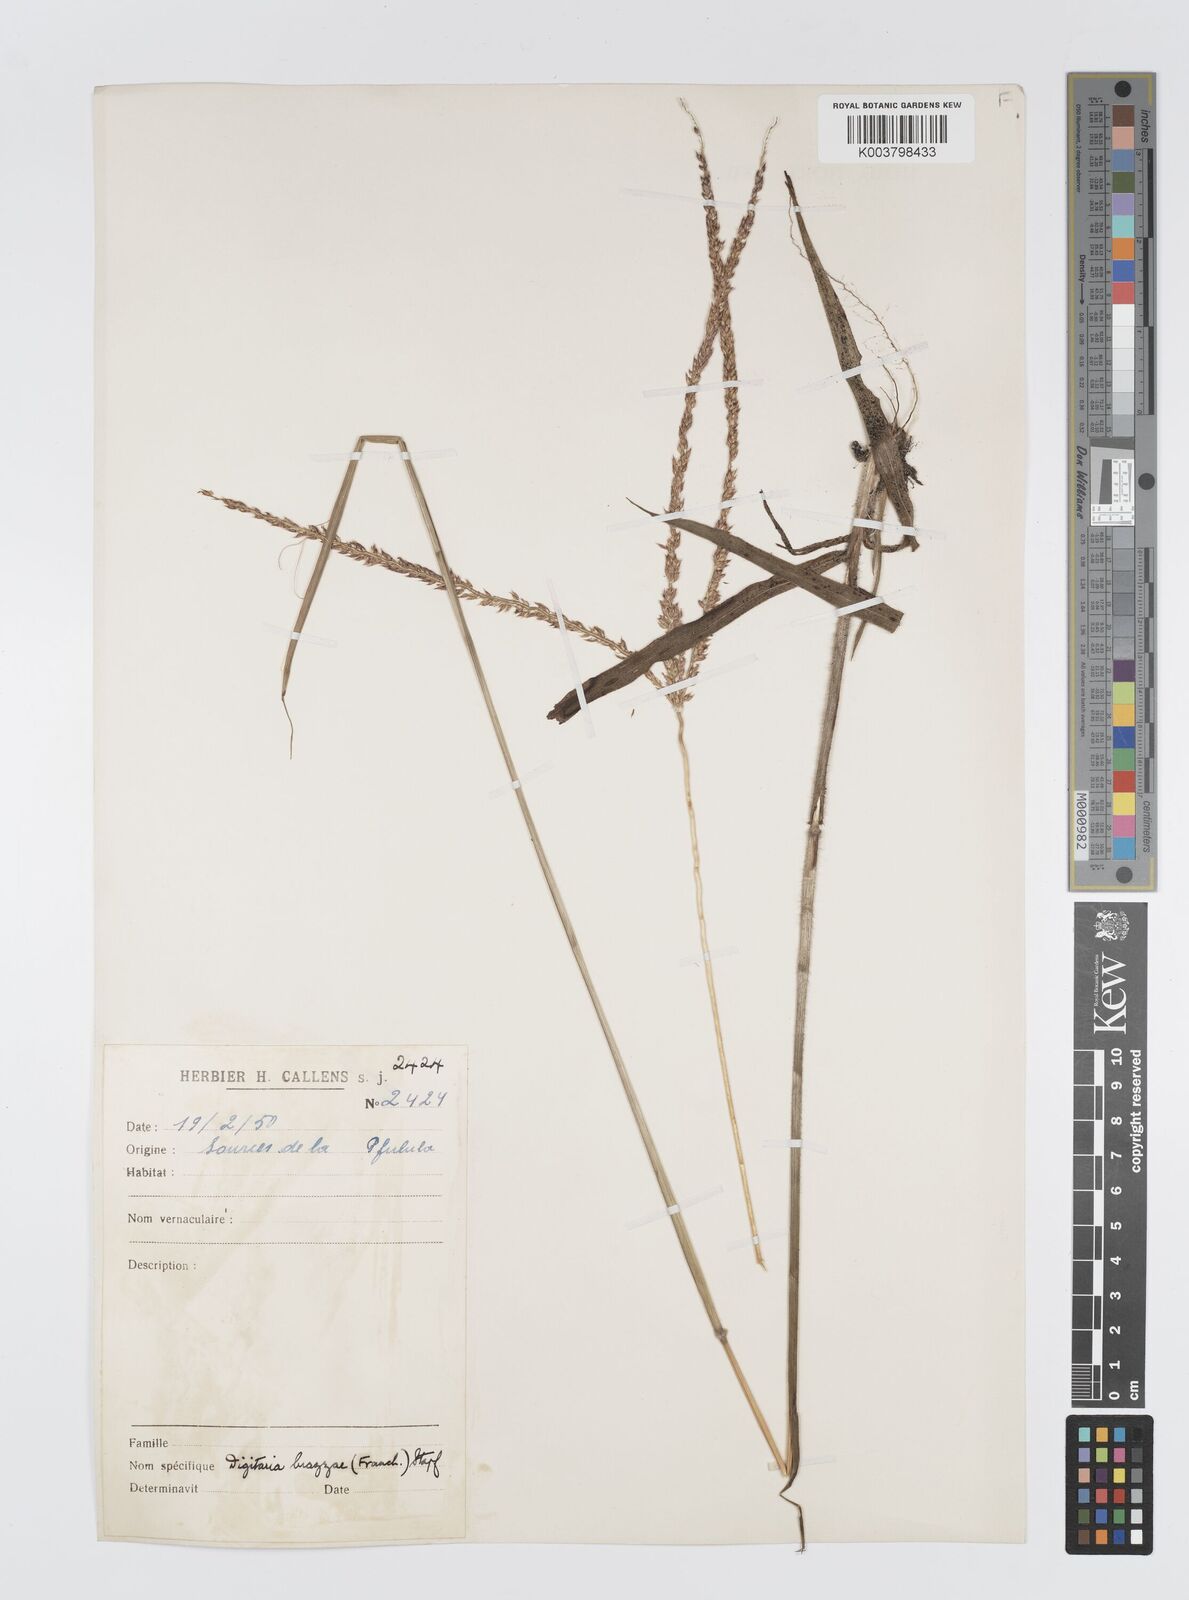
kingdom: Plantae
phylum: Tracheophyta
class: Liliopsida
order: Poales
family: Poaceae
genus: Digitaria
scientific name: Digitaria brazzae
